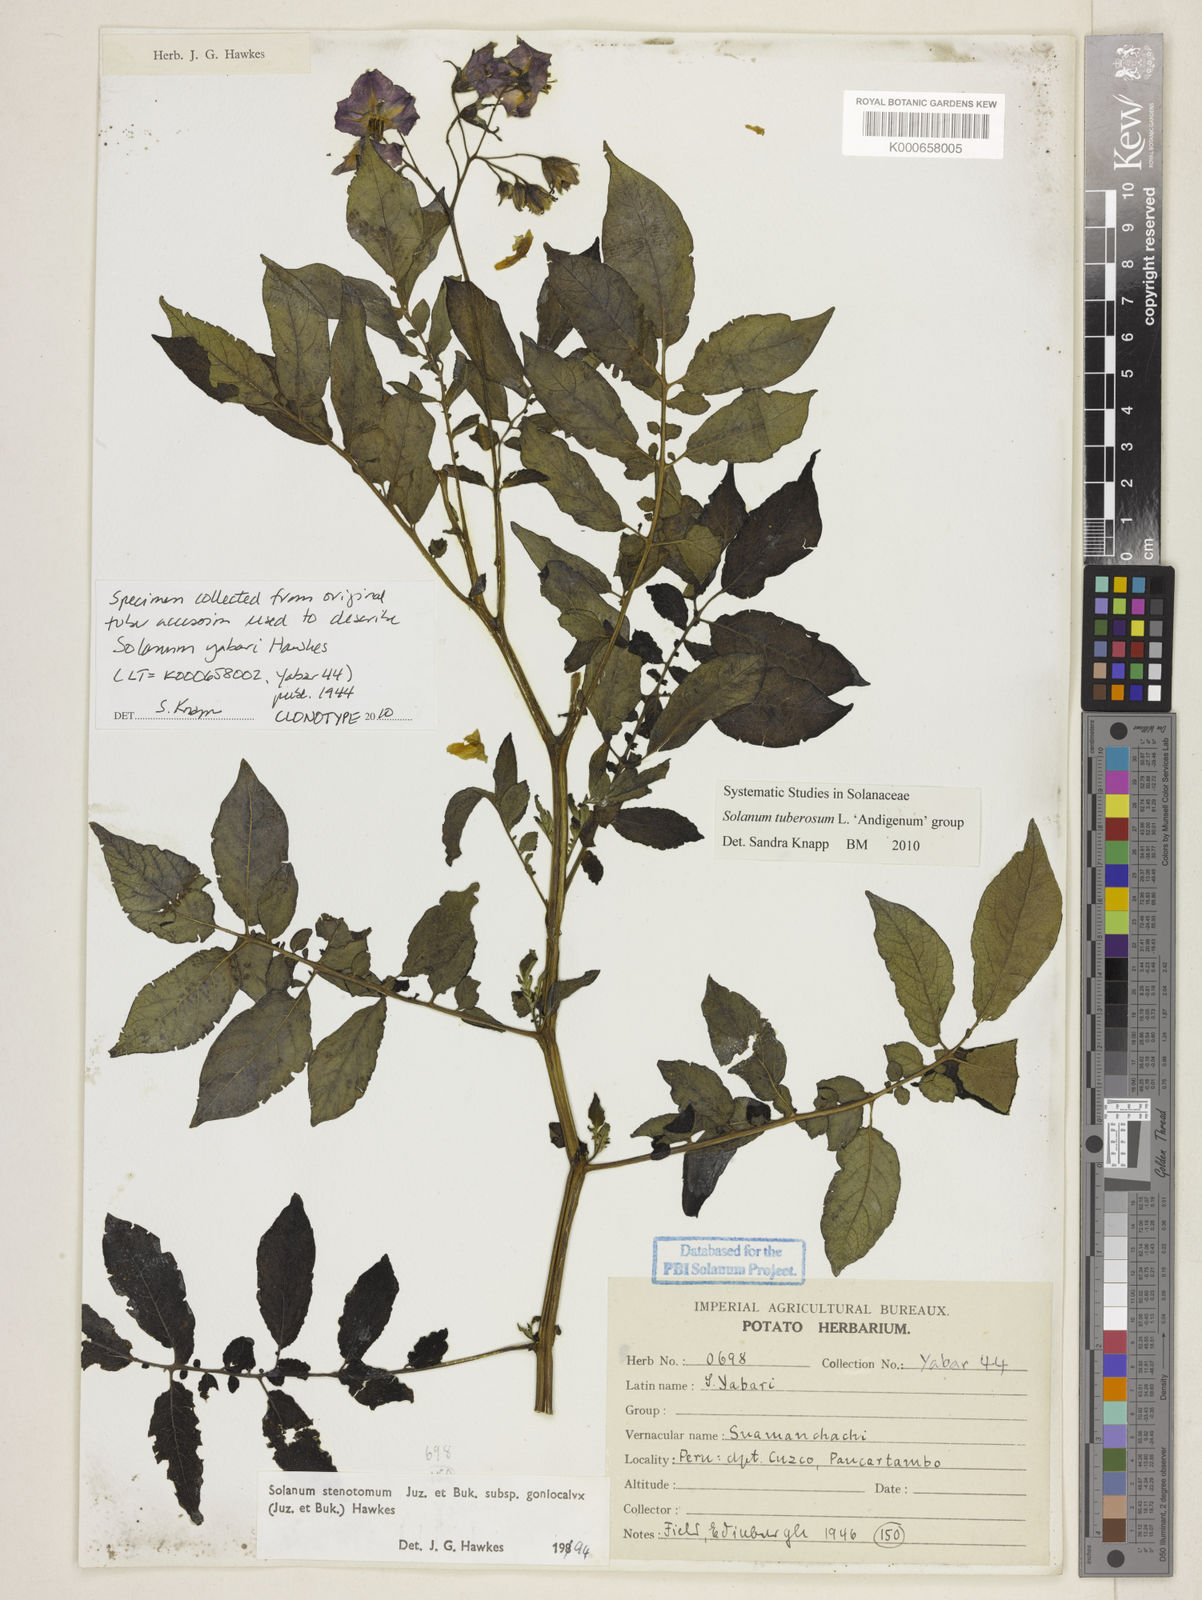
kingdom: Plantae
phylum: Tracheophyta
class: Magnoliopsida
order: Solanales
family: Solanaceae
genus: Solanum
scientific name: Solanum tuberosum
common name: Potato
